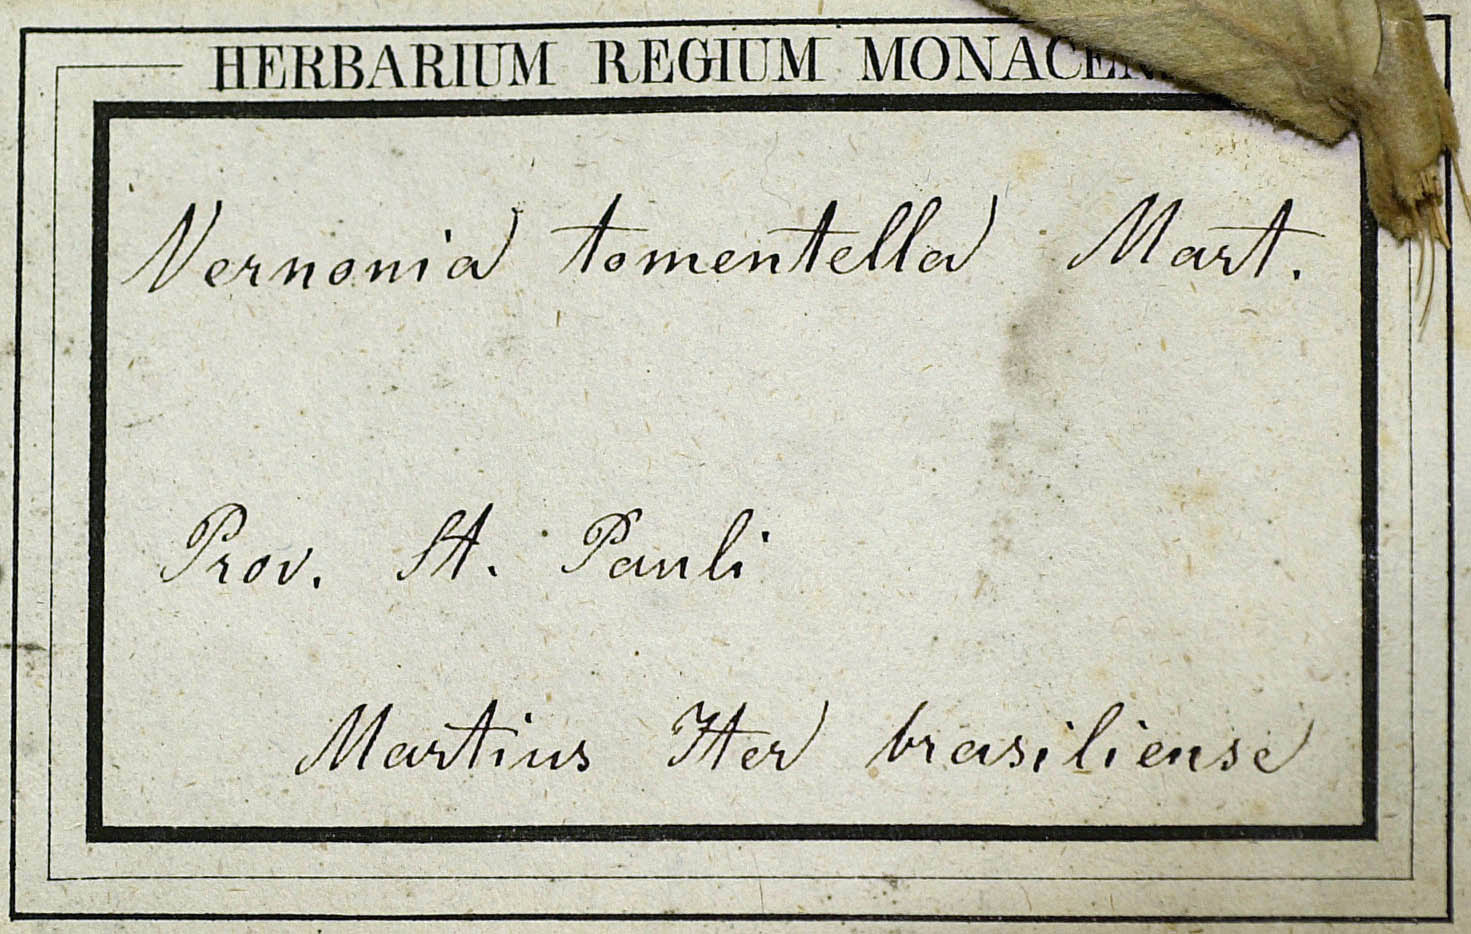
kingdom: Plantae
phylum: Tracheophyta
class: Magnoliopsida
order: Asterales
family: Asteraceae
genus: Lessingianthus
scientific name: Lessingianthus pycnostachyus
